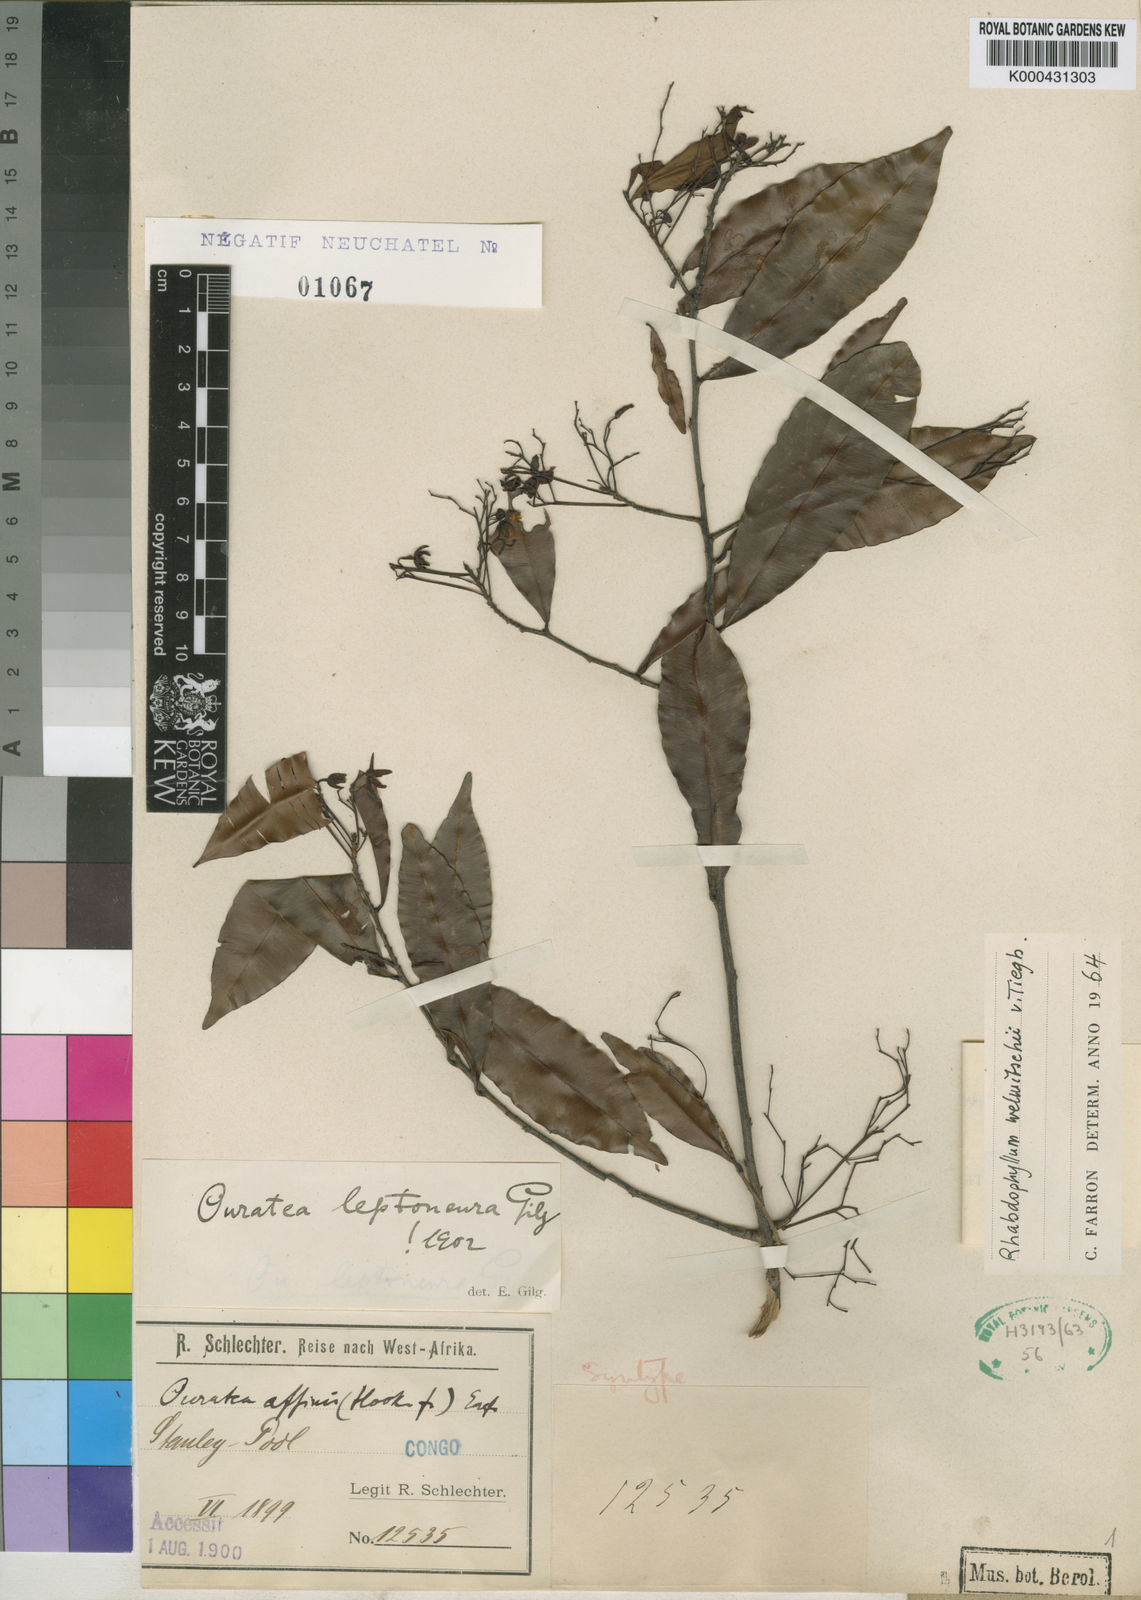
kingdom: Plantae
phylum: Tracheophyta
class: Magnoliopsida
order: Malpighiales
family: Ochnaceae
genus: Rhabdophyllum
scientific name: Rhabdophyllum welwitschii
